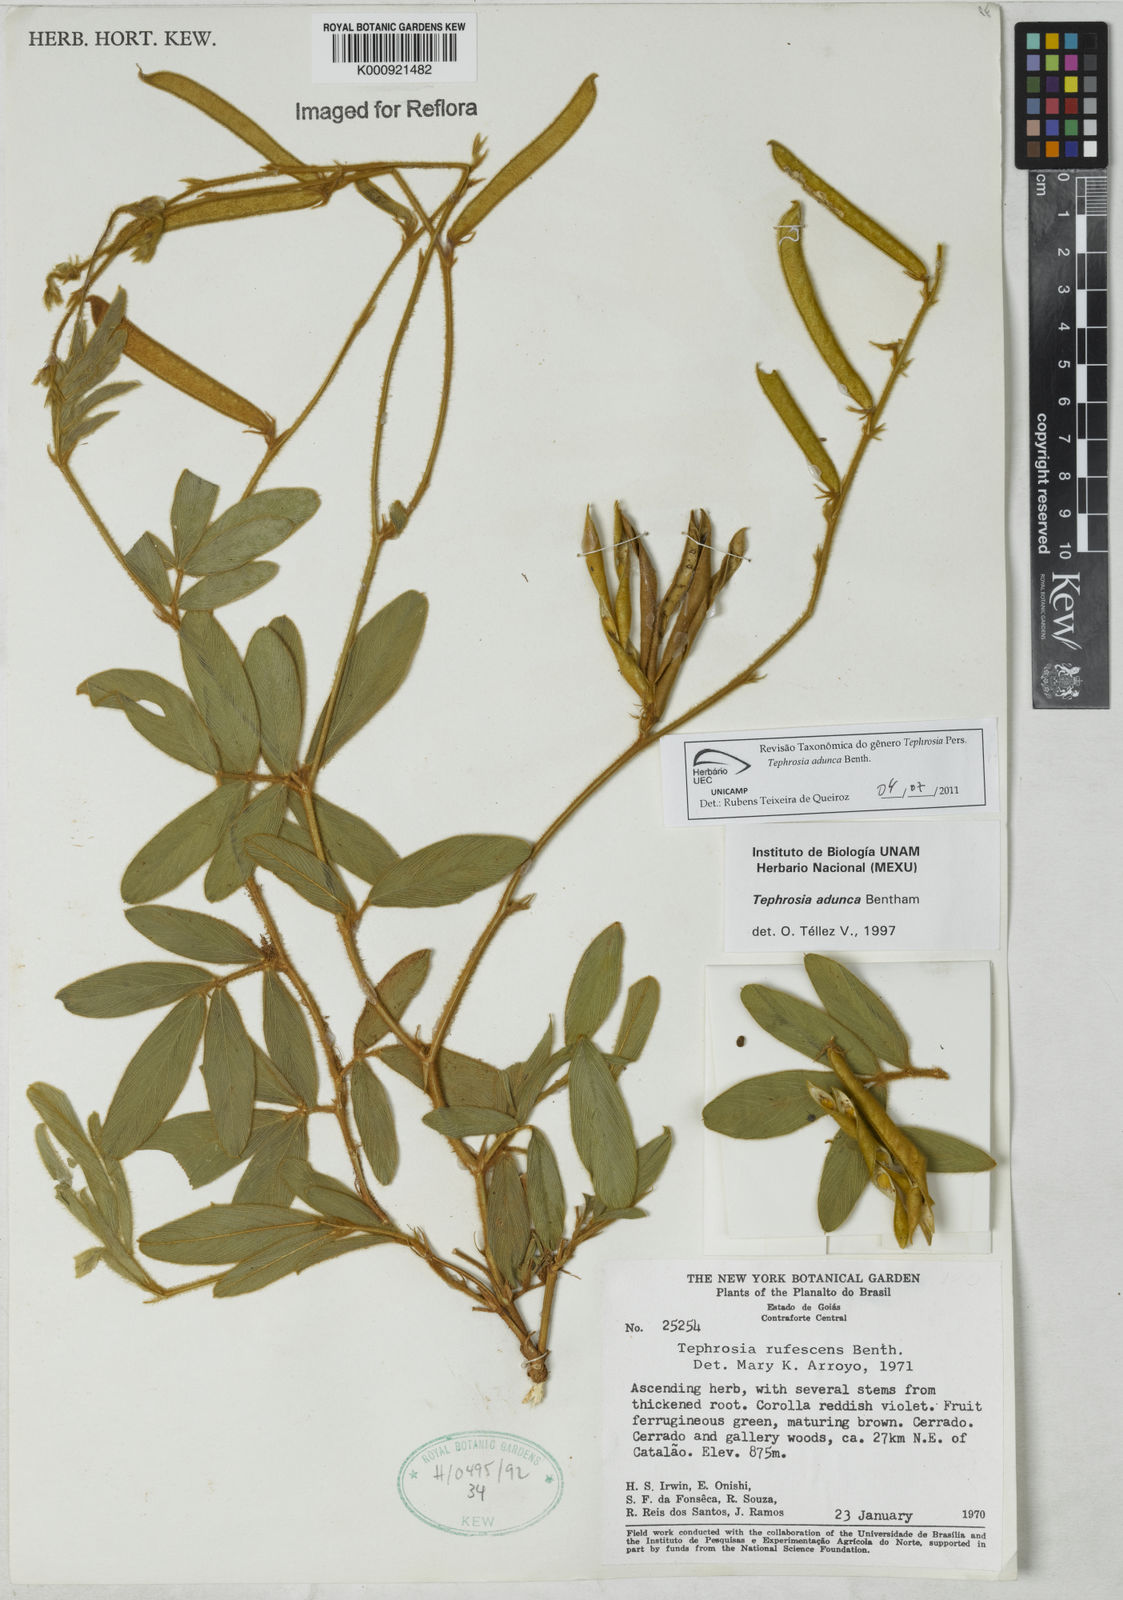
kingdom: Plantae
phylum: Tracheophyta
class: Magnoliopsida
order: Fabales
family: Fabaceae
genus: Tephrosia
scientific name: Tephrosia adunca
